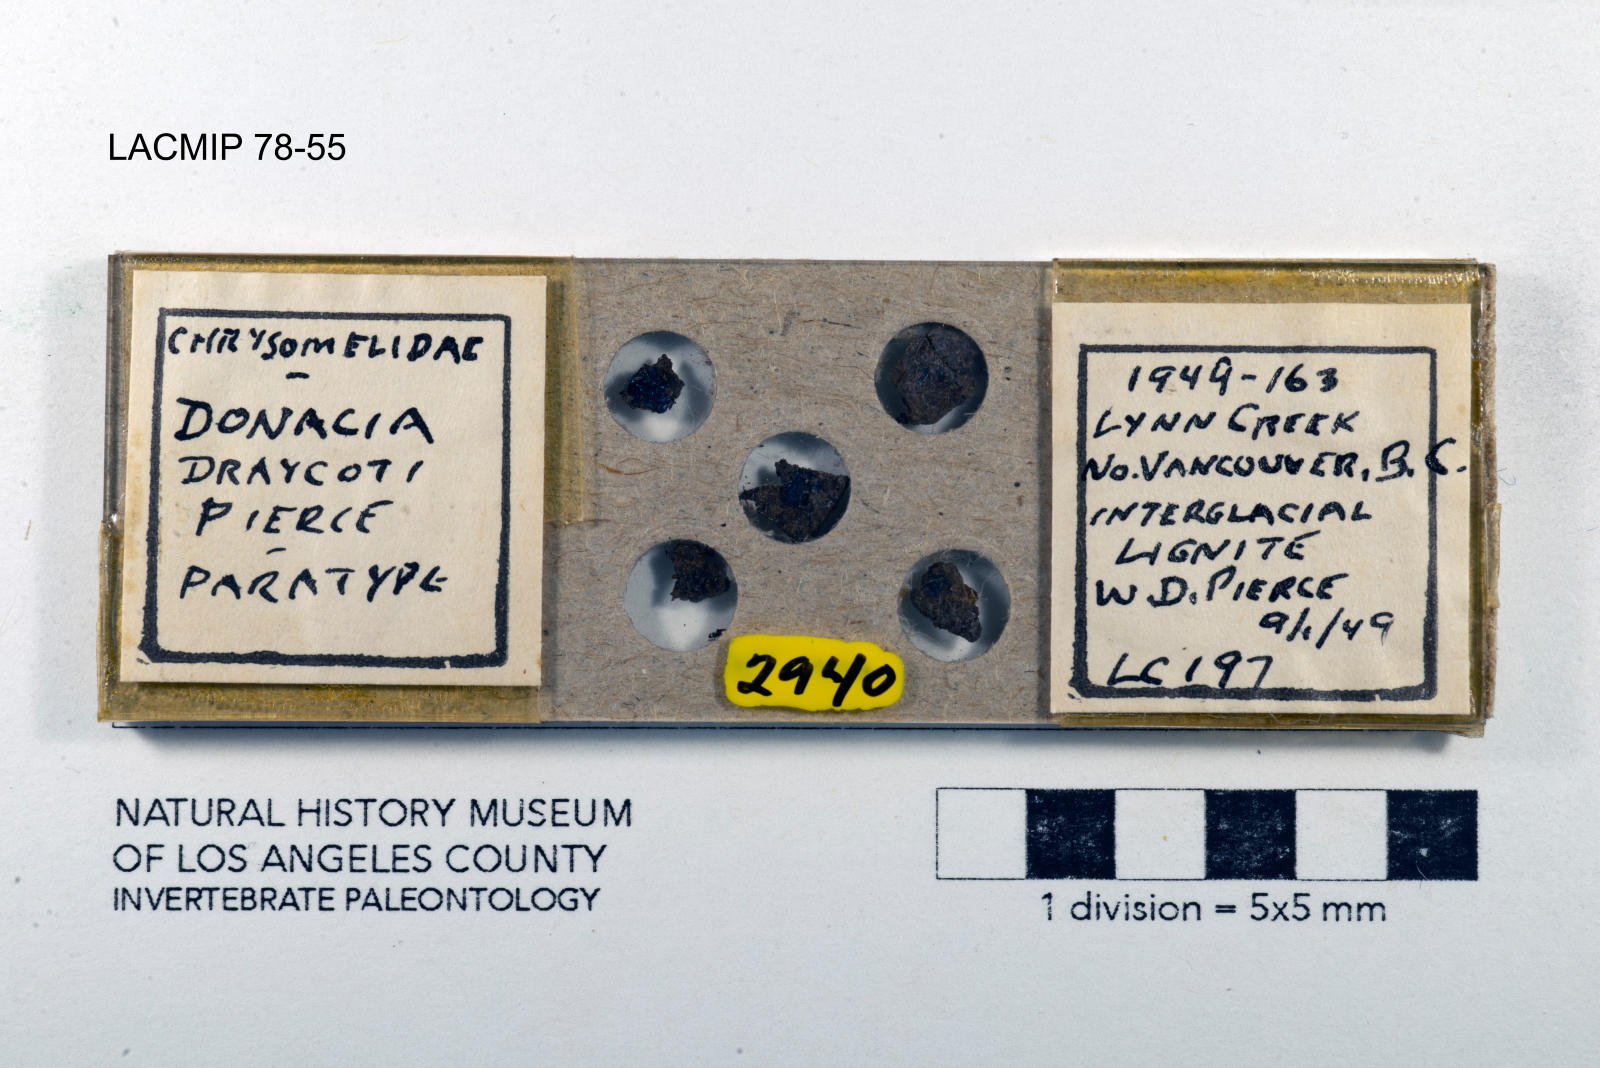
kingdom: Animalia
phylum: Arthropoda
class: Insecta
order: Coleoptera
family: Chrysomelidae
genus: Donacia
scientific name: Donacia draycoti
